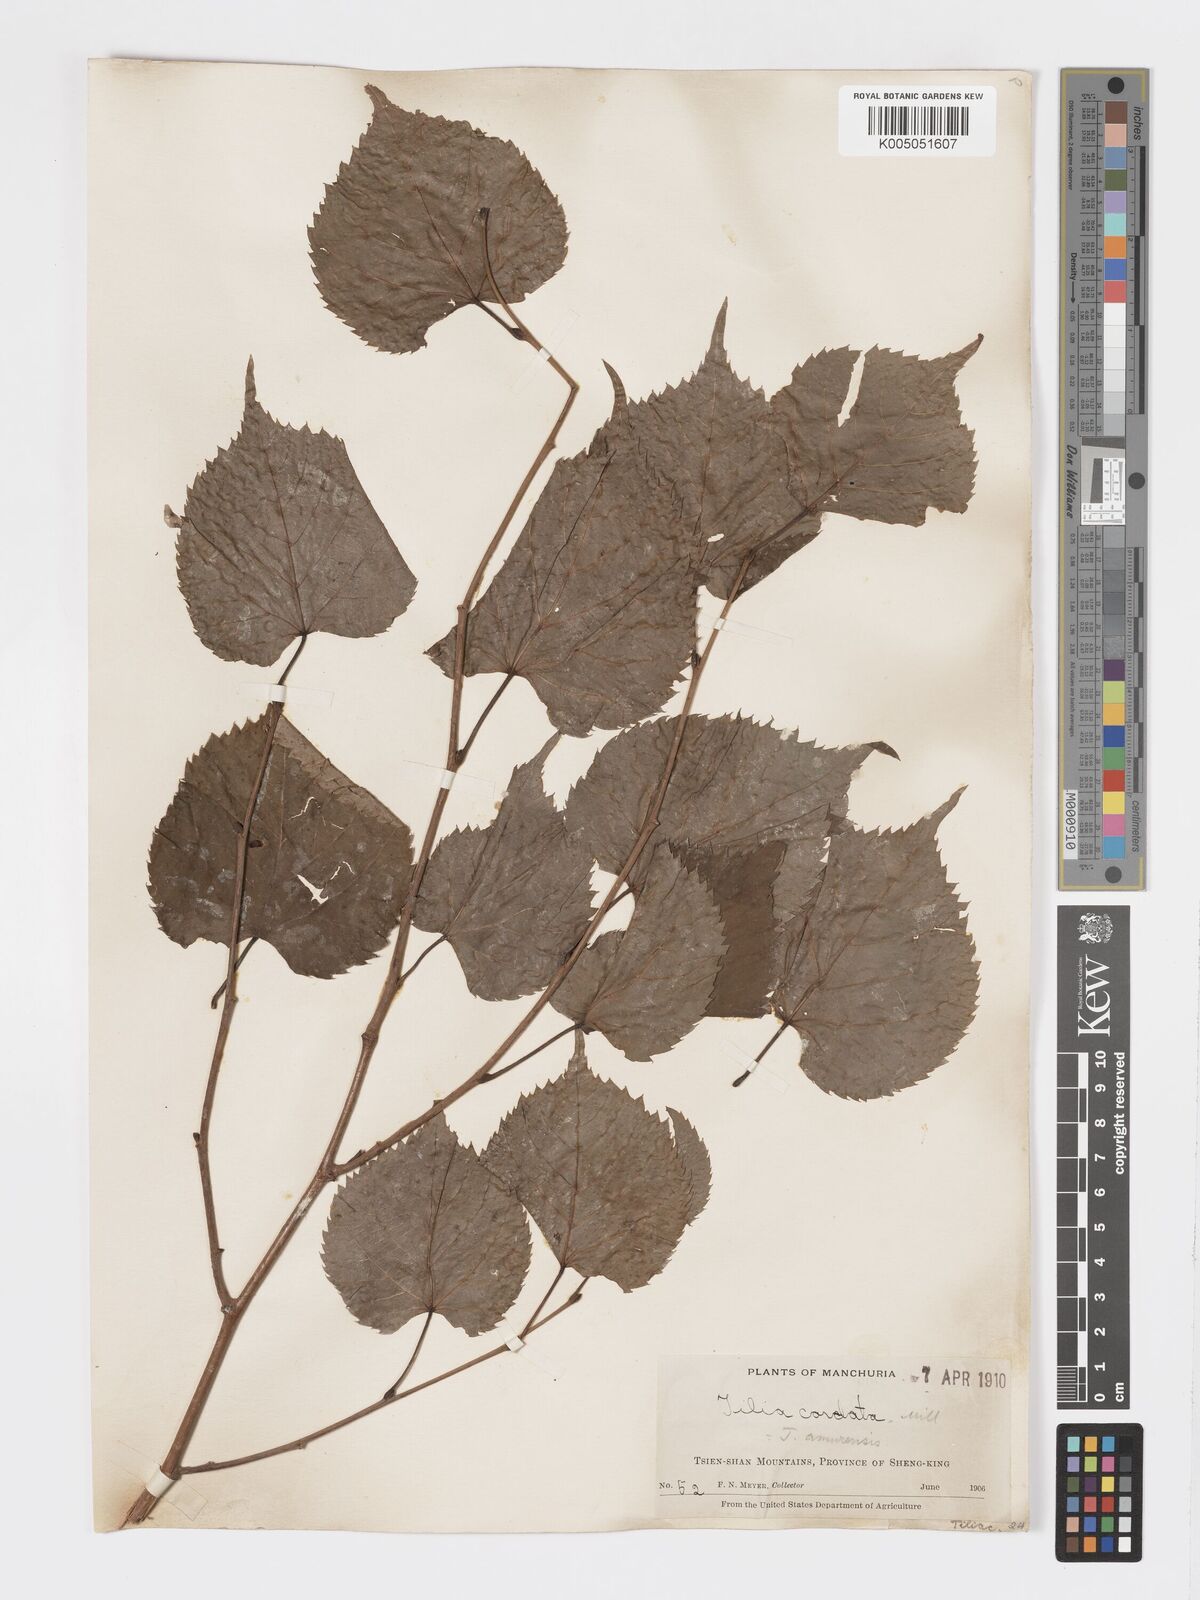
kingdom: Plantae
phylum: Tracheophyta
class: Magnoliopsida
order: Malvales
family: Malvaceae
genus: Tilia
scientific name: Tilia
